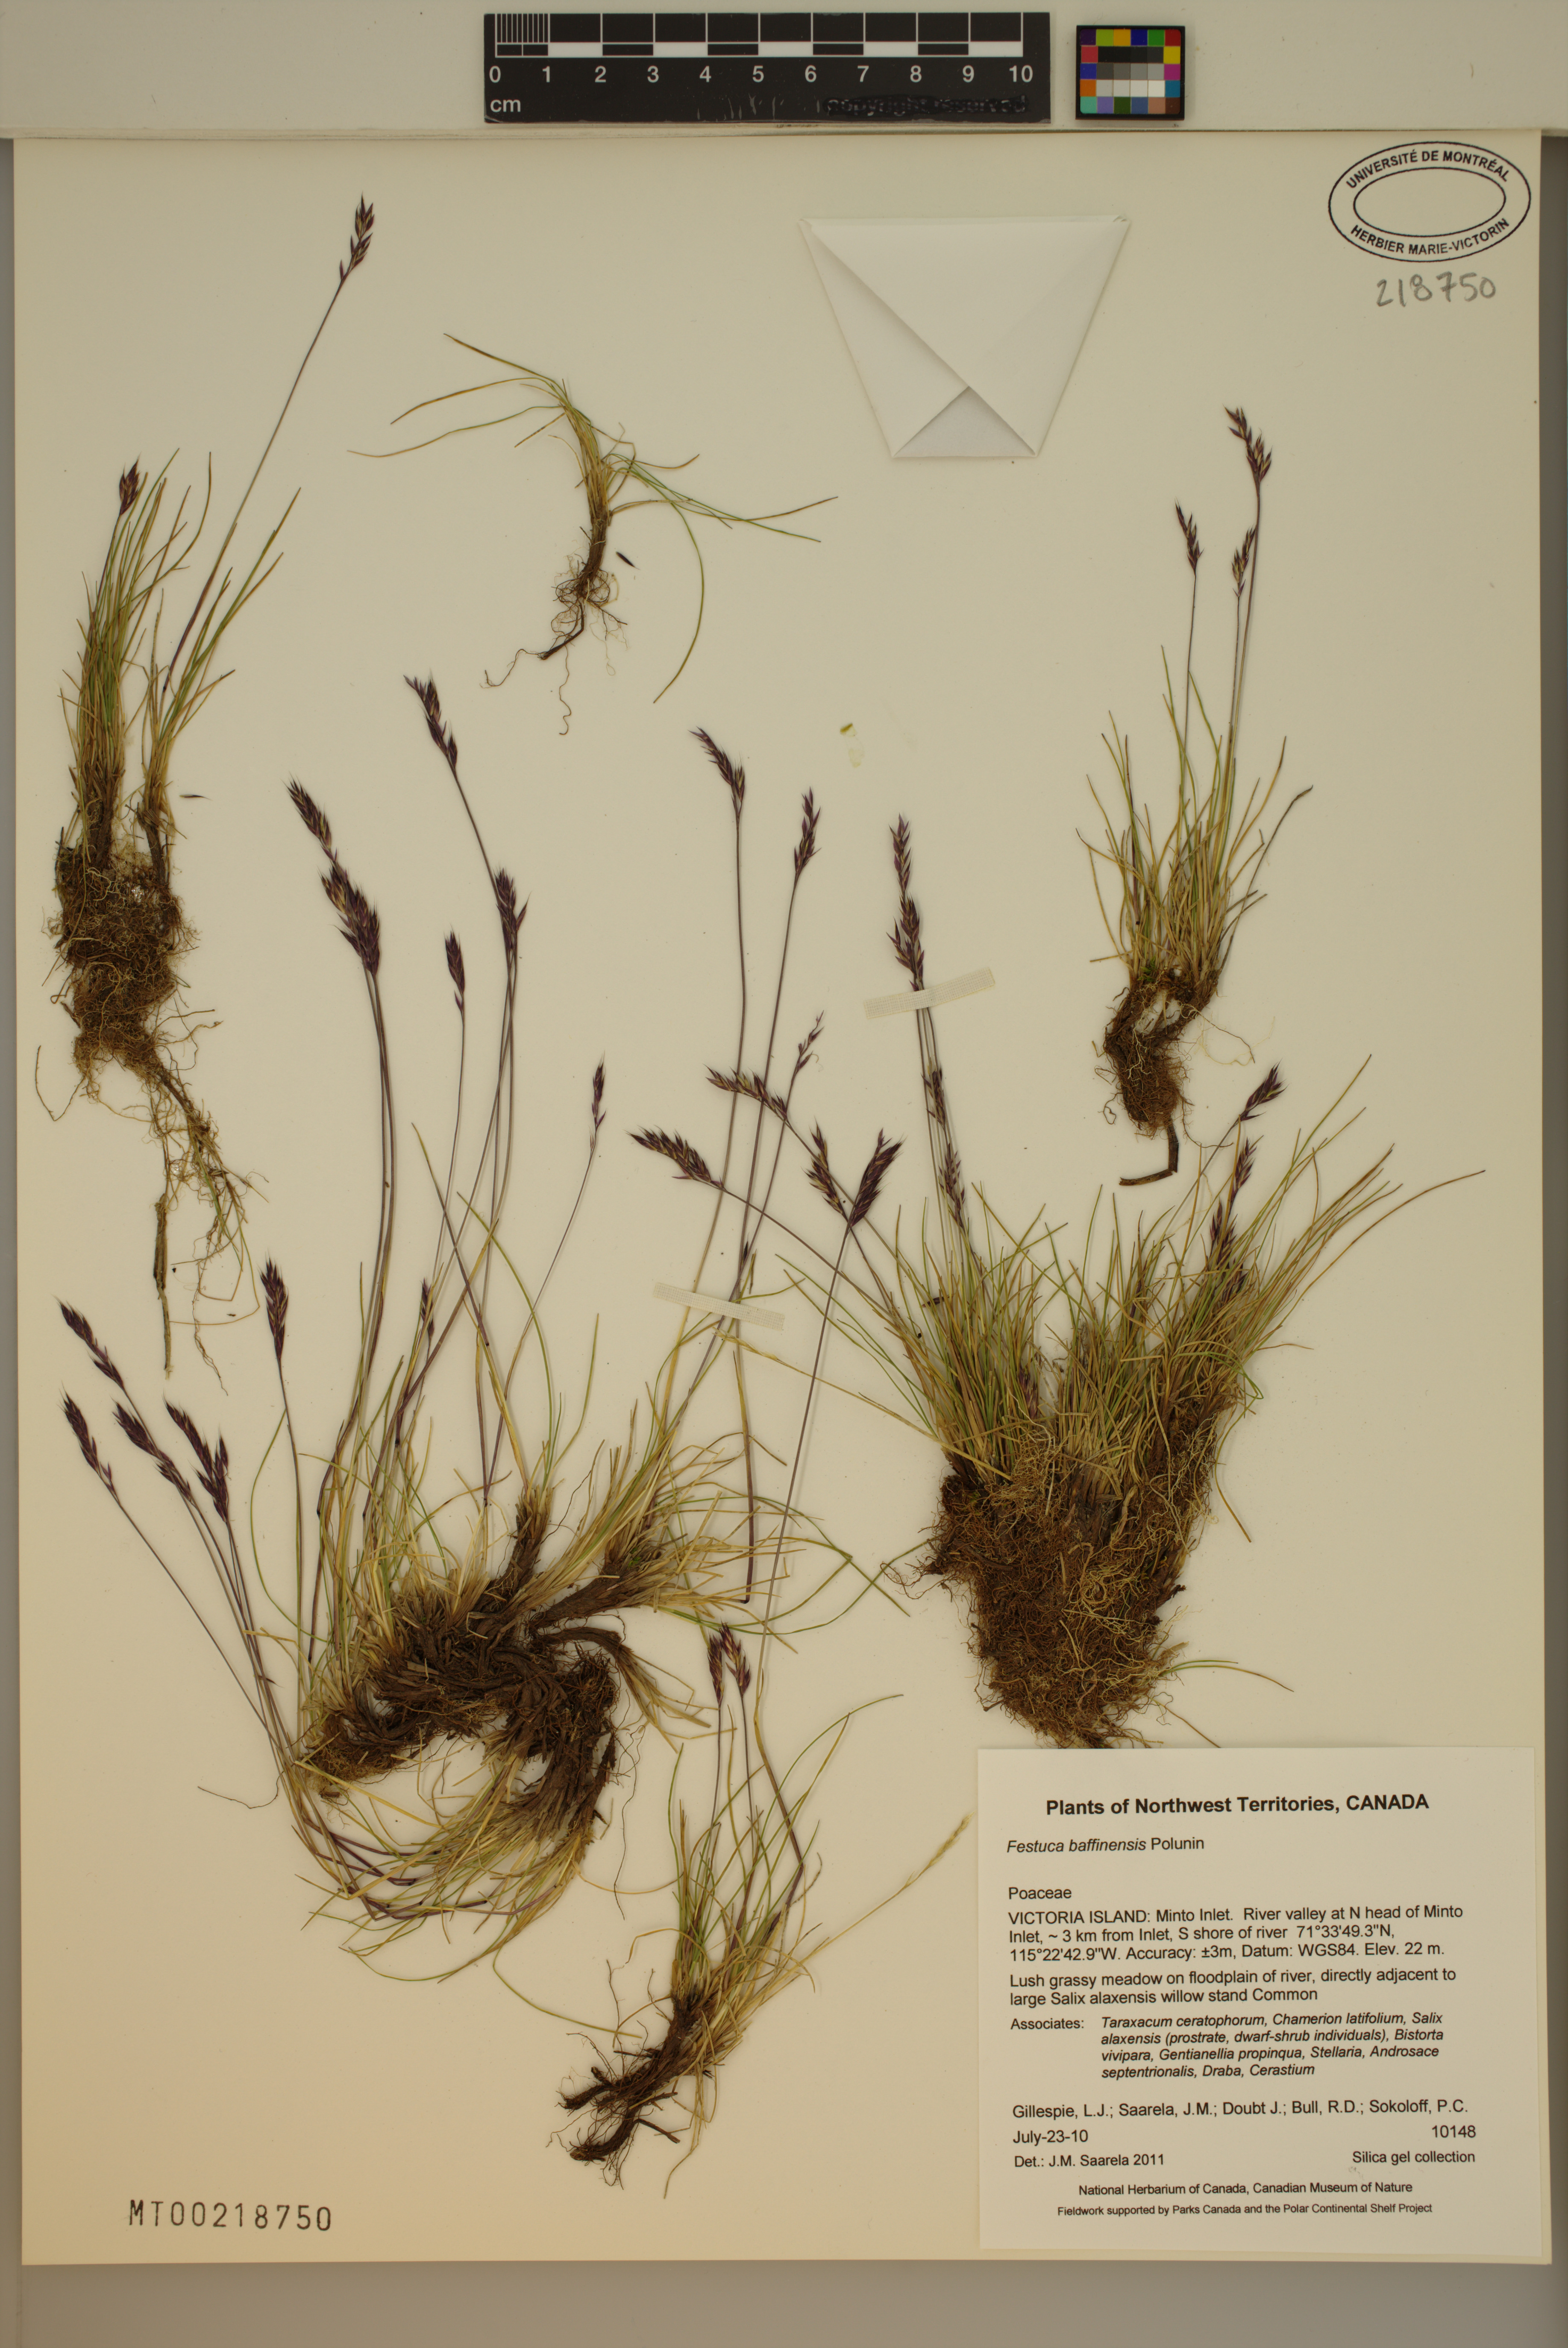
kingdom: Plantae
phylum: Tracheophyta
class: Liliopsida
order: Poales
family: Poaceae
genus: Festuca
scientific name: Festuca baffinensis
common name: Baffin island fescue
